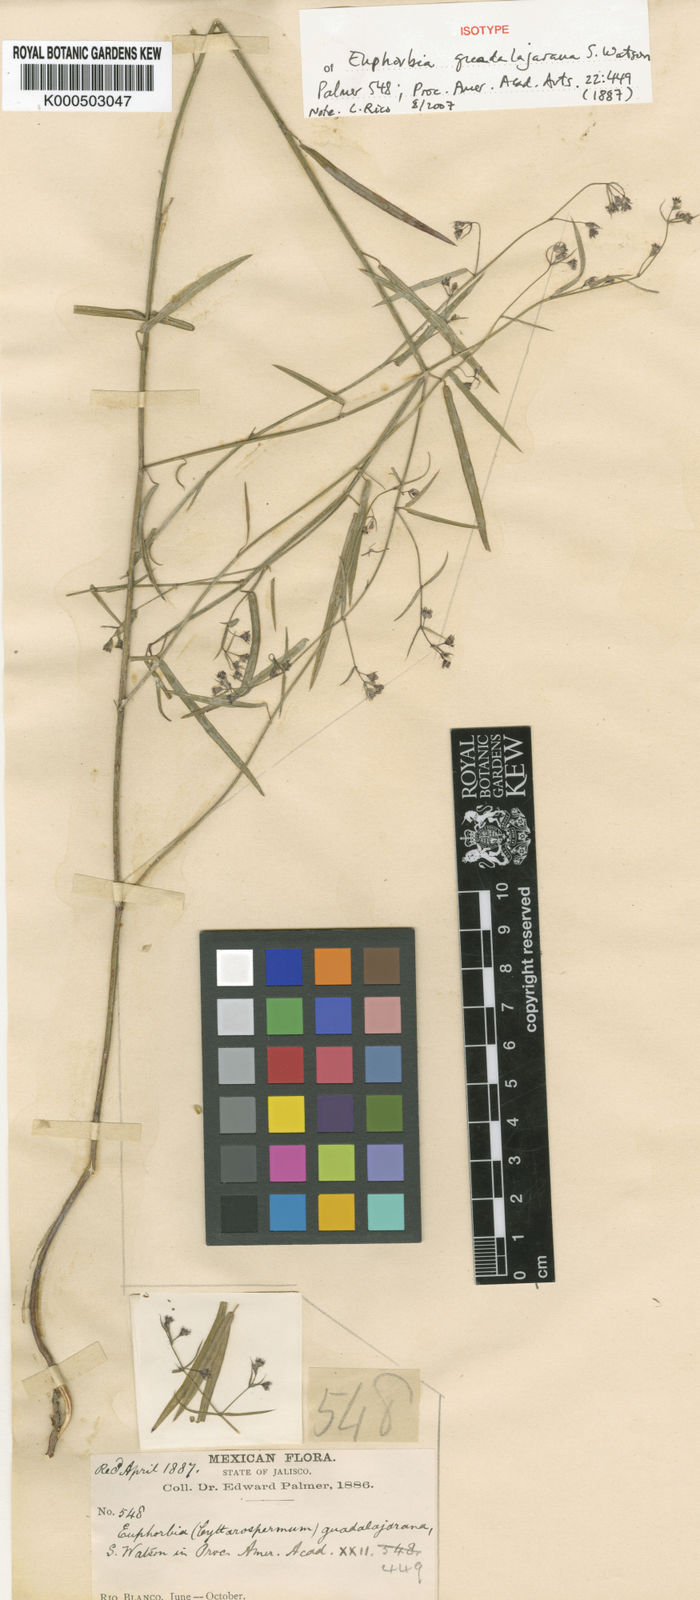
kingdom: Plantae
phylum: Tracheophyta
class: Magnoliopsida
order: Malpighiales
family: Euphorbiaceae
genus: Euphorbia
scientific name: Euphorbia guadalajarana
